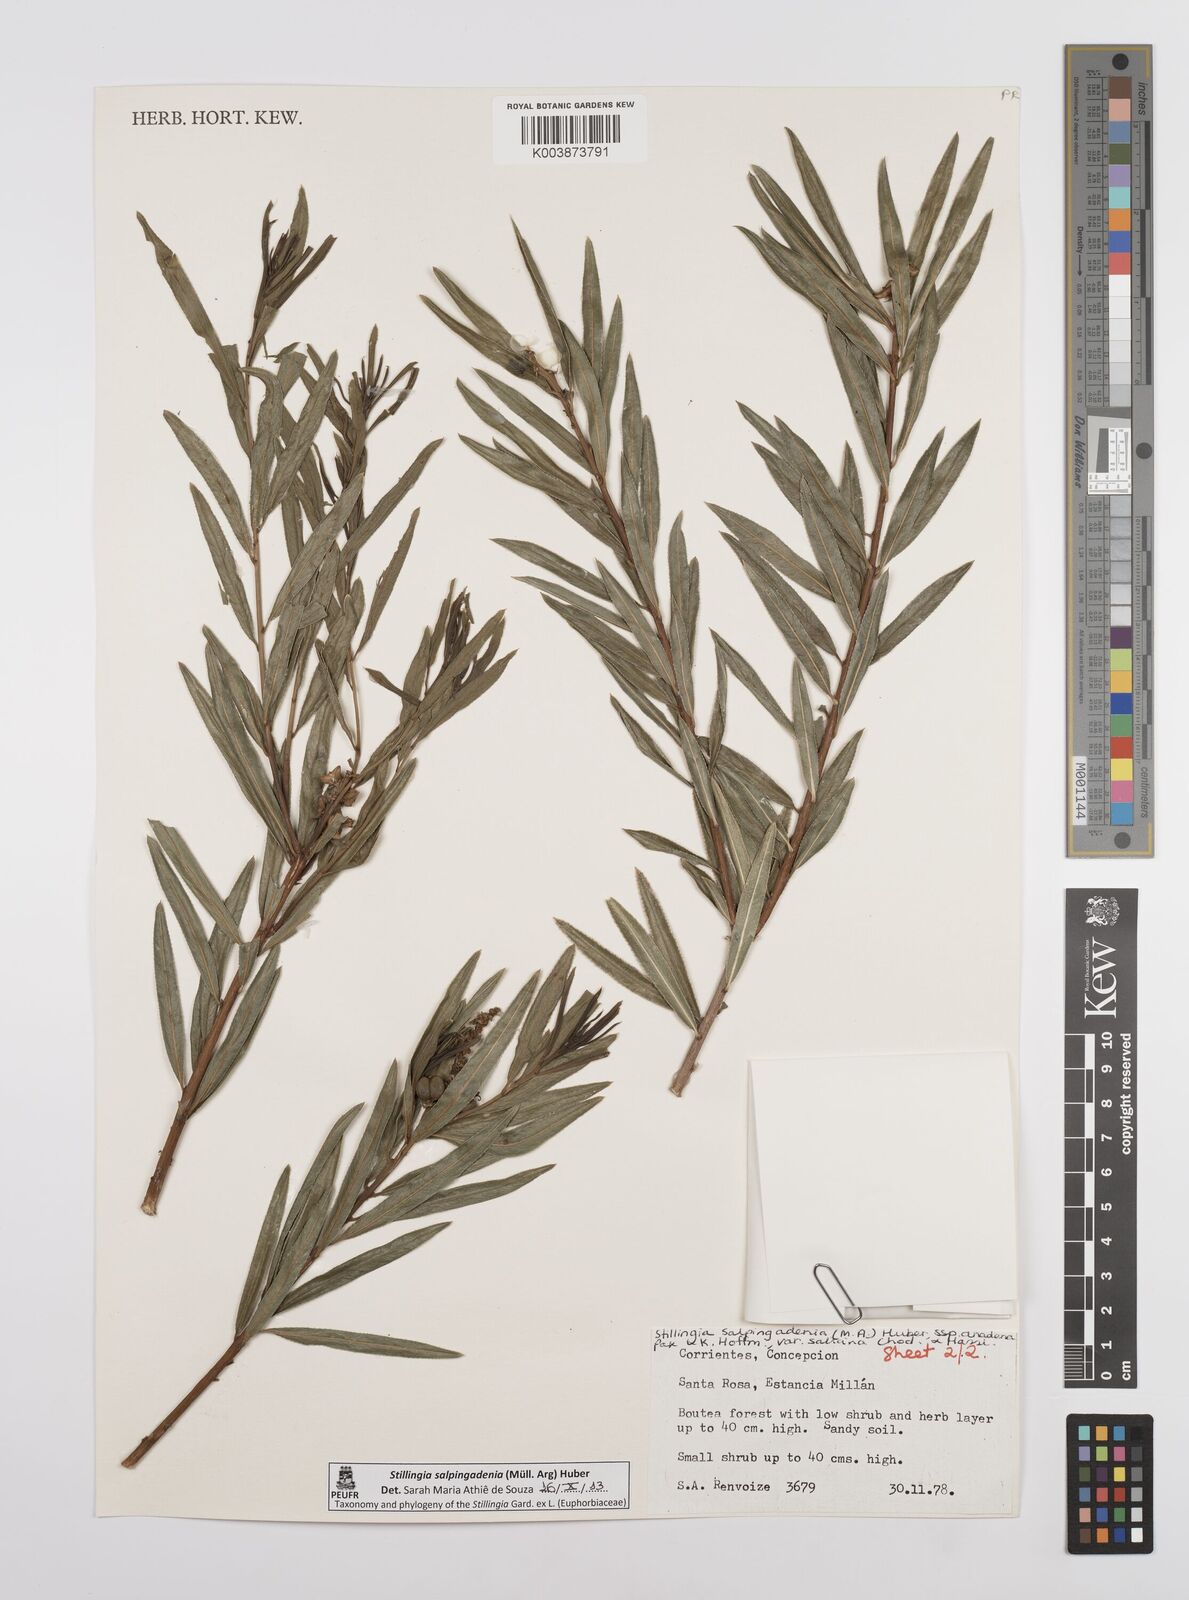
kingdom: Plantae
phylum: Tracheophyta
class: Magnoliopsida
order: Malpighiales
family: Euphorbiaceae
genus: Stillingia
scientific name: Stillingia salpingadenia
